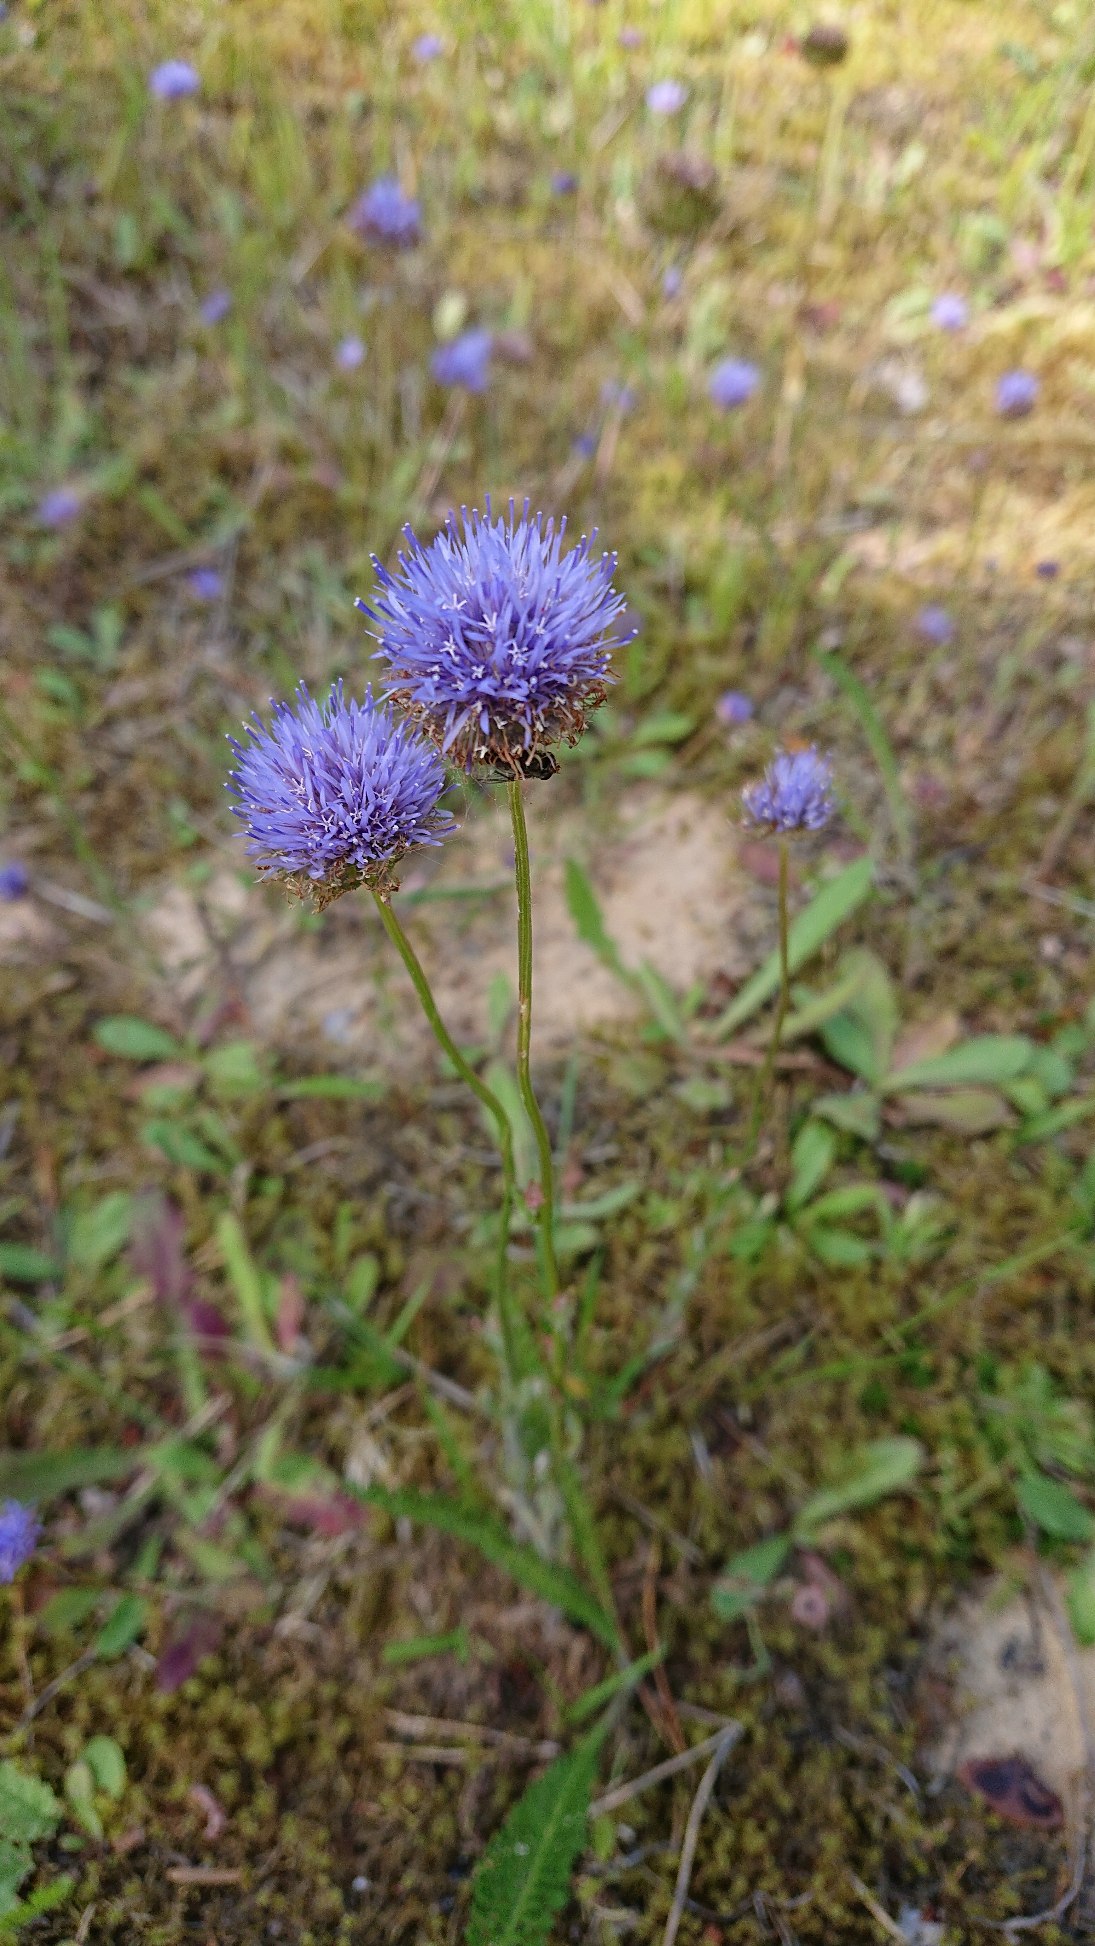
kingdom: Plantae
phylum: Tracheophyta
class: Magnoliopsida
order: Asterales
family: Campanulaceae
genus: Jasione
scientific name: Jasione montana
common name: Blåmunke
